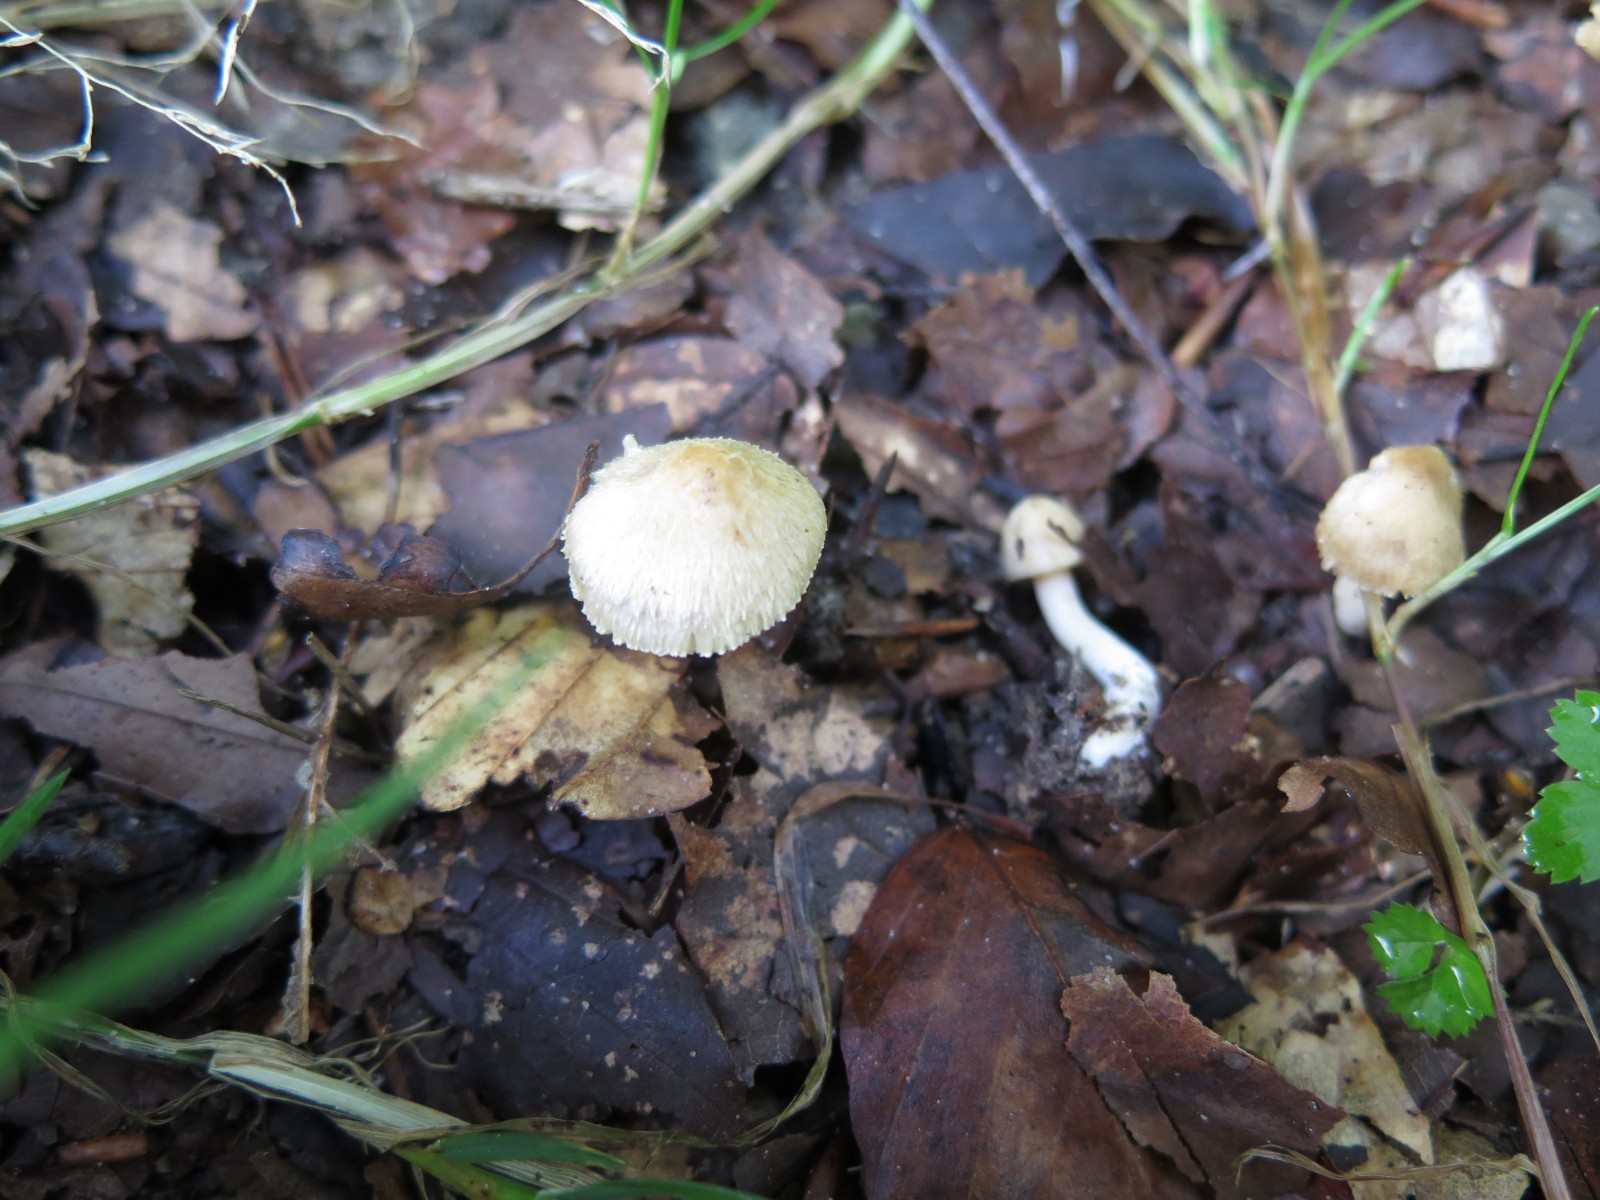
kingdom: Fungi
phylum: Basidiomycota
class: Agaricomycetes
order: Agaricales
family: Inocybaceae
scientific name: Inocybaceae
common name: trævlhatfamilien
